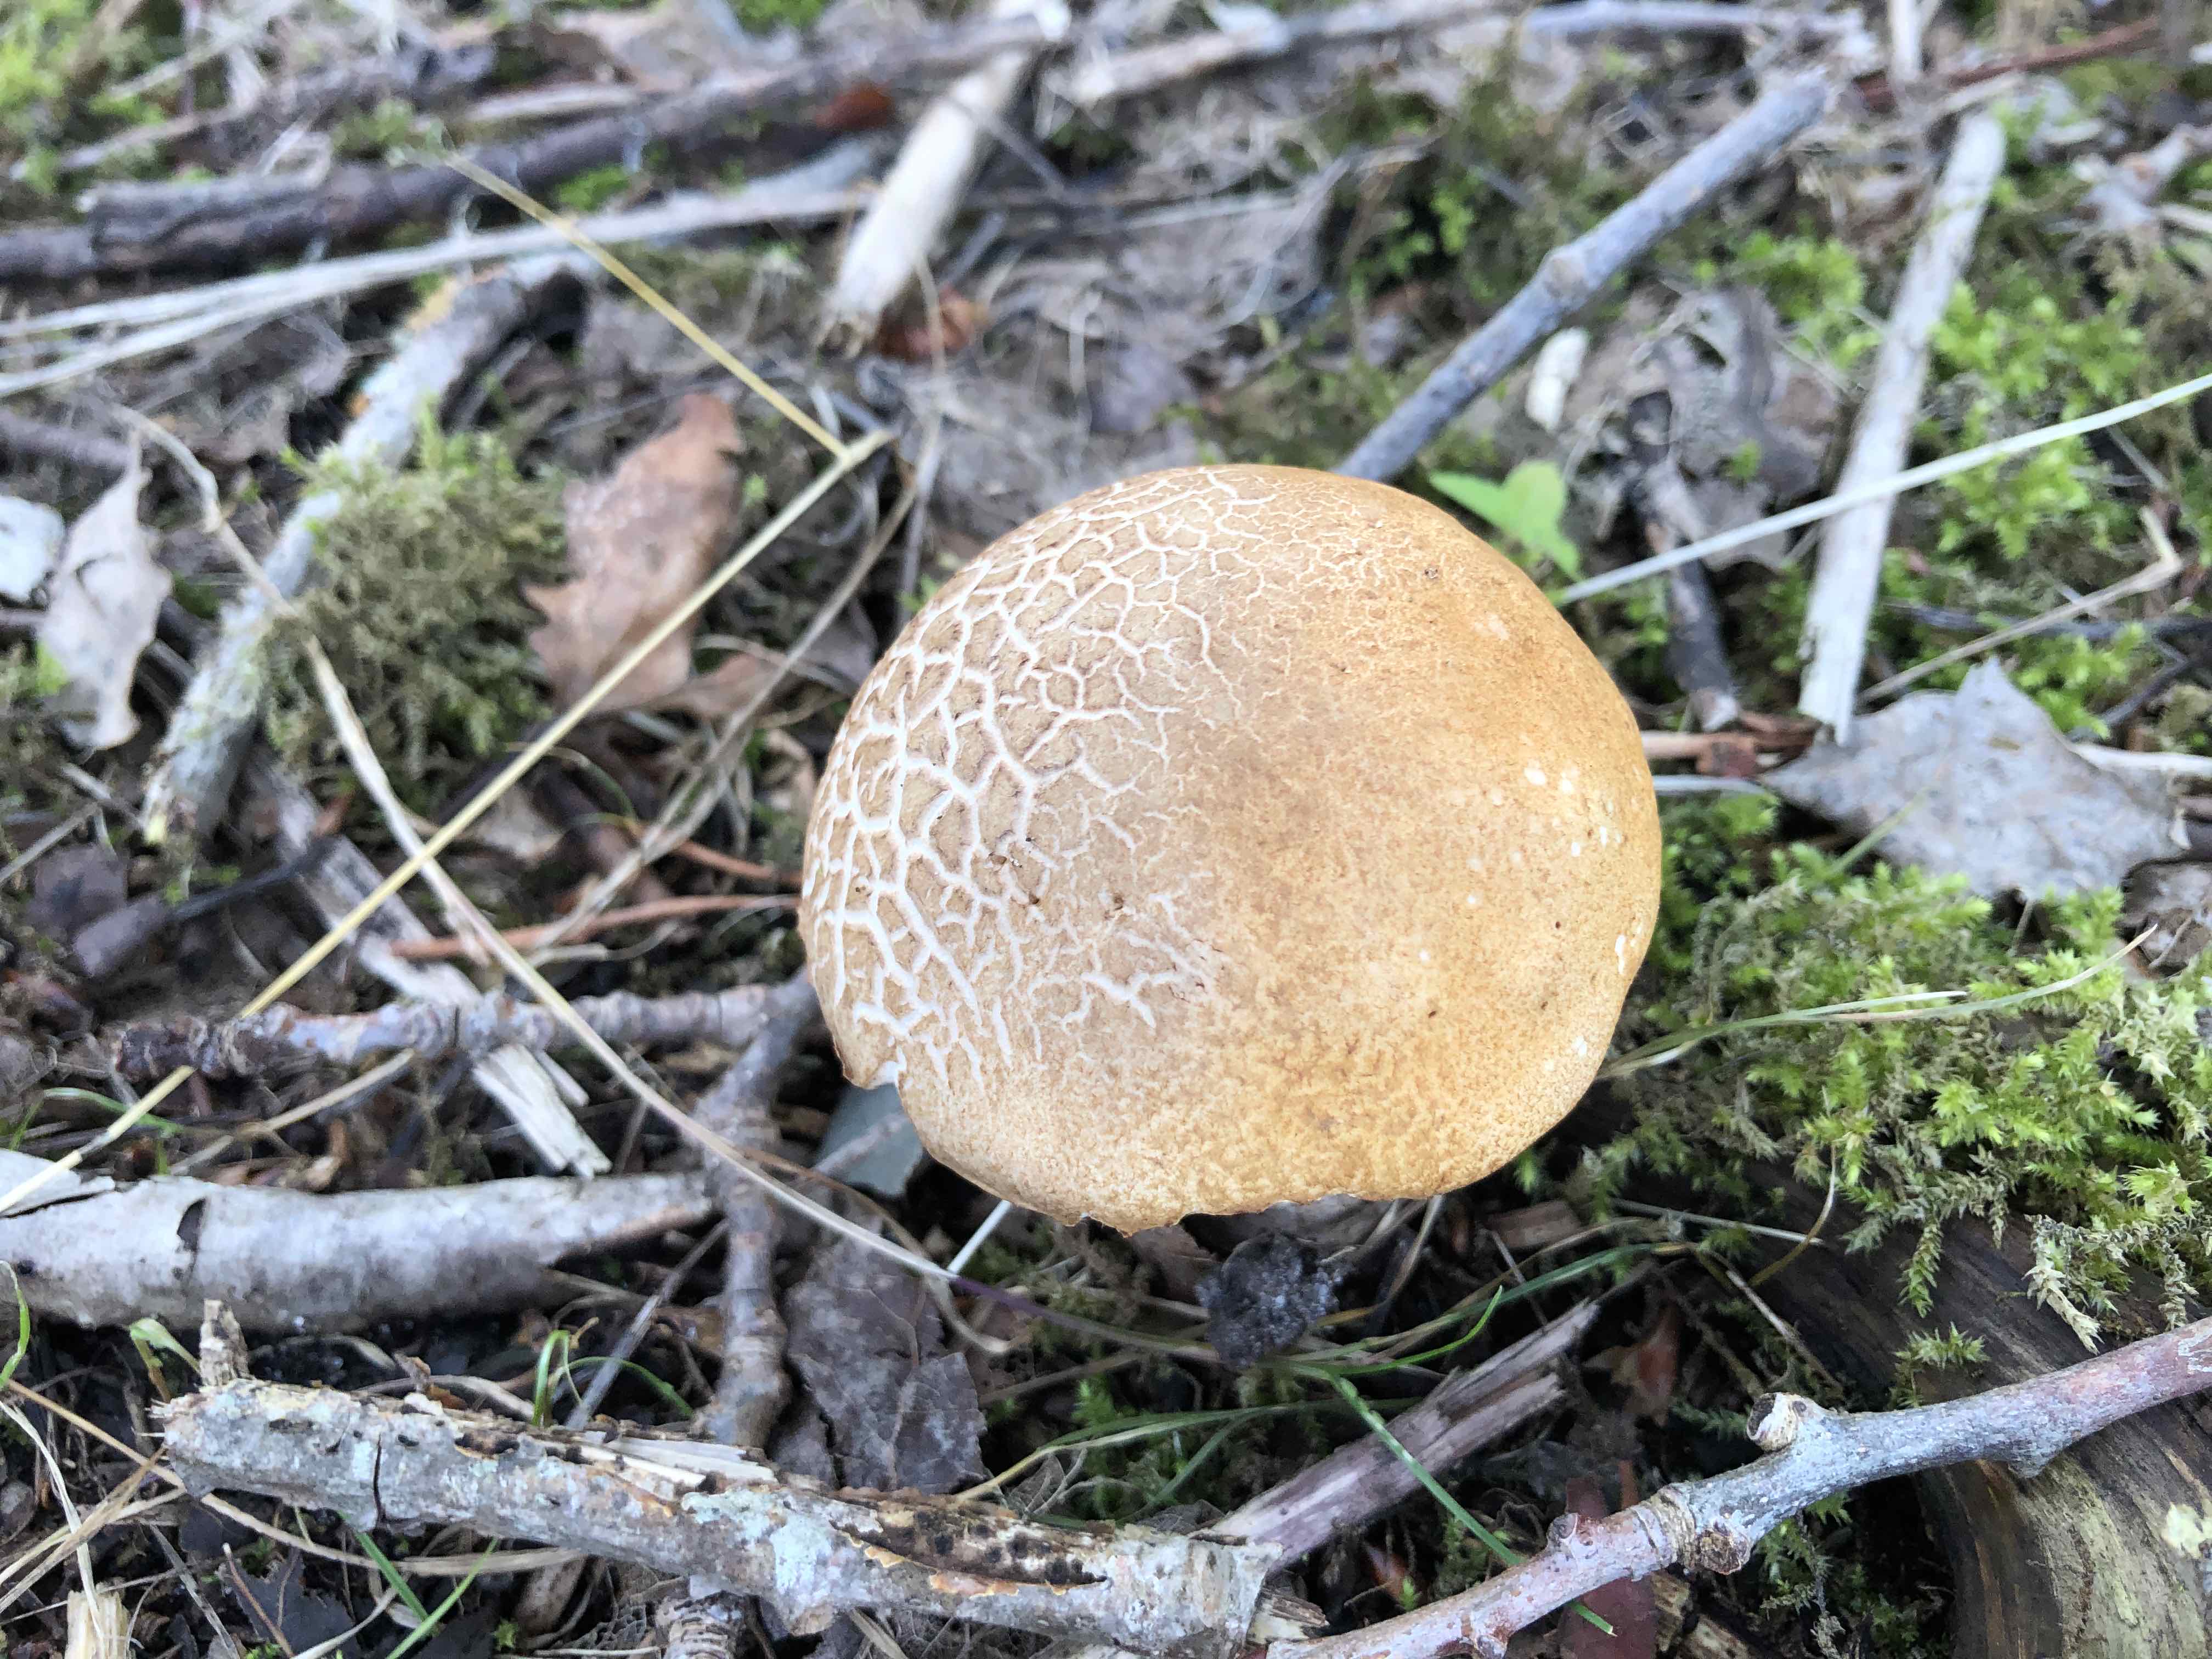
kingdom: Fungi
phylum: Basidiomycota
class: Agaricomycetes
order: Boletales
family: Boletaceae
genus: Leccinum
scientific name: Leccinum albostipitatum
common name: aspe-skælrørhat
